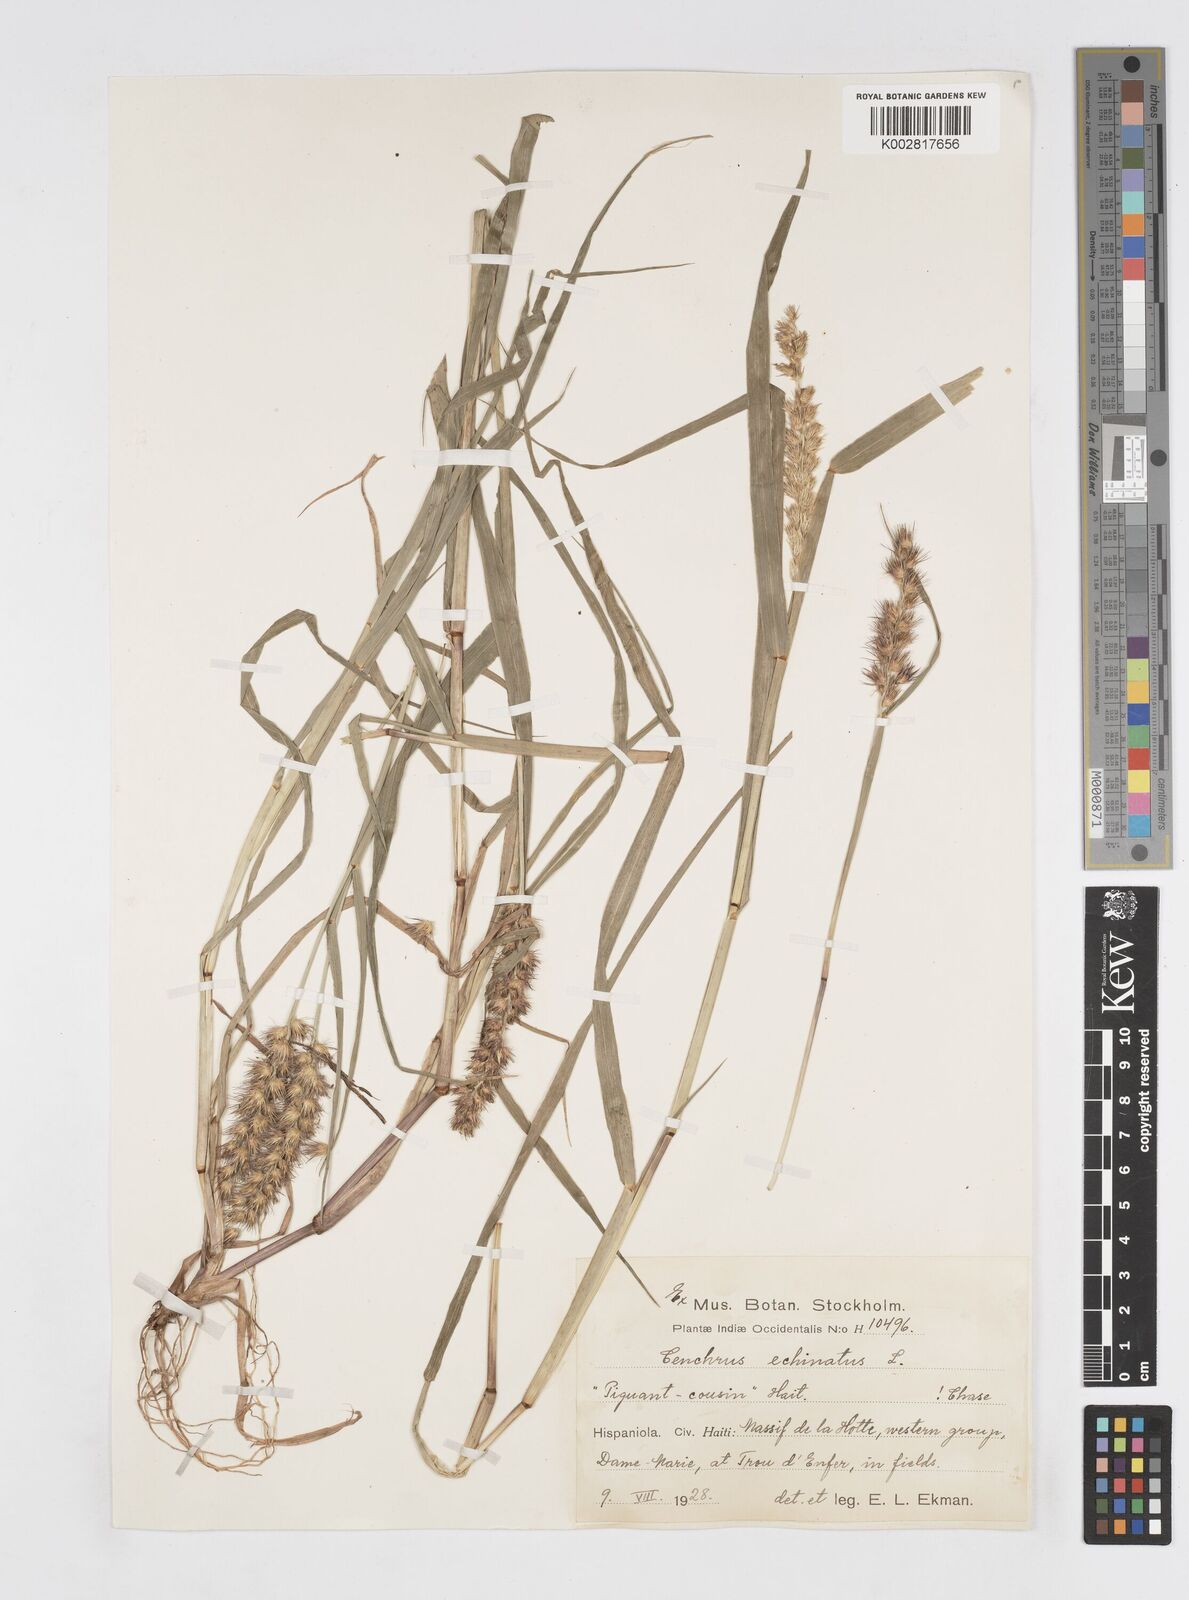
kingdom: Plantae
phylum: Tracheophyta
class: Liliopsida
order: Poales
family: Poaceae
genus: Cenchrus
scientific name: Cenchrus brownii
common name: Slim-bristle sandbur
